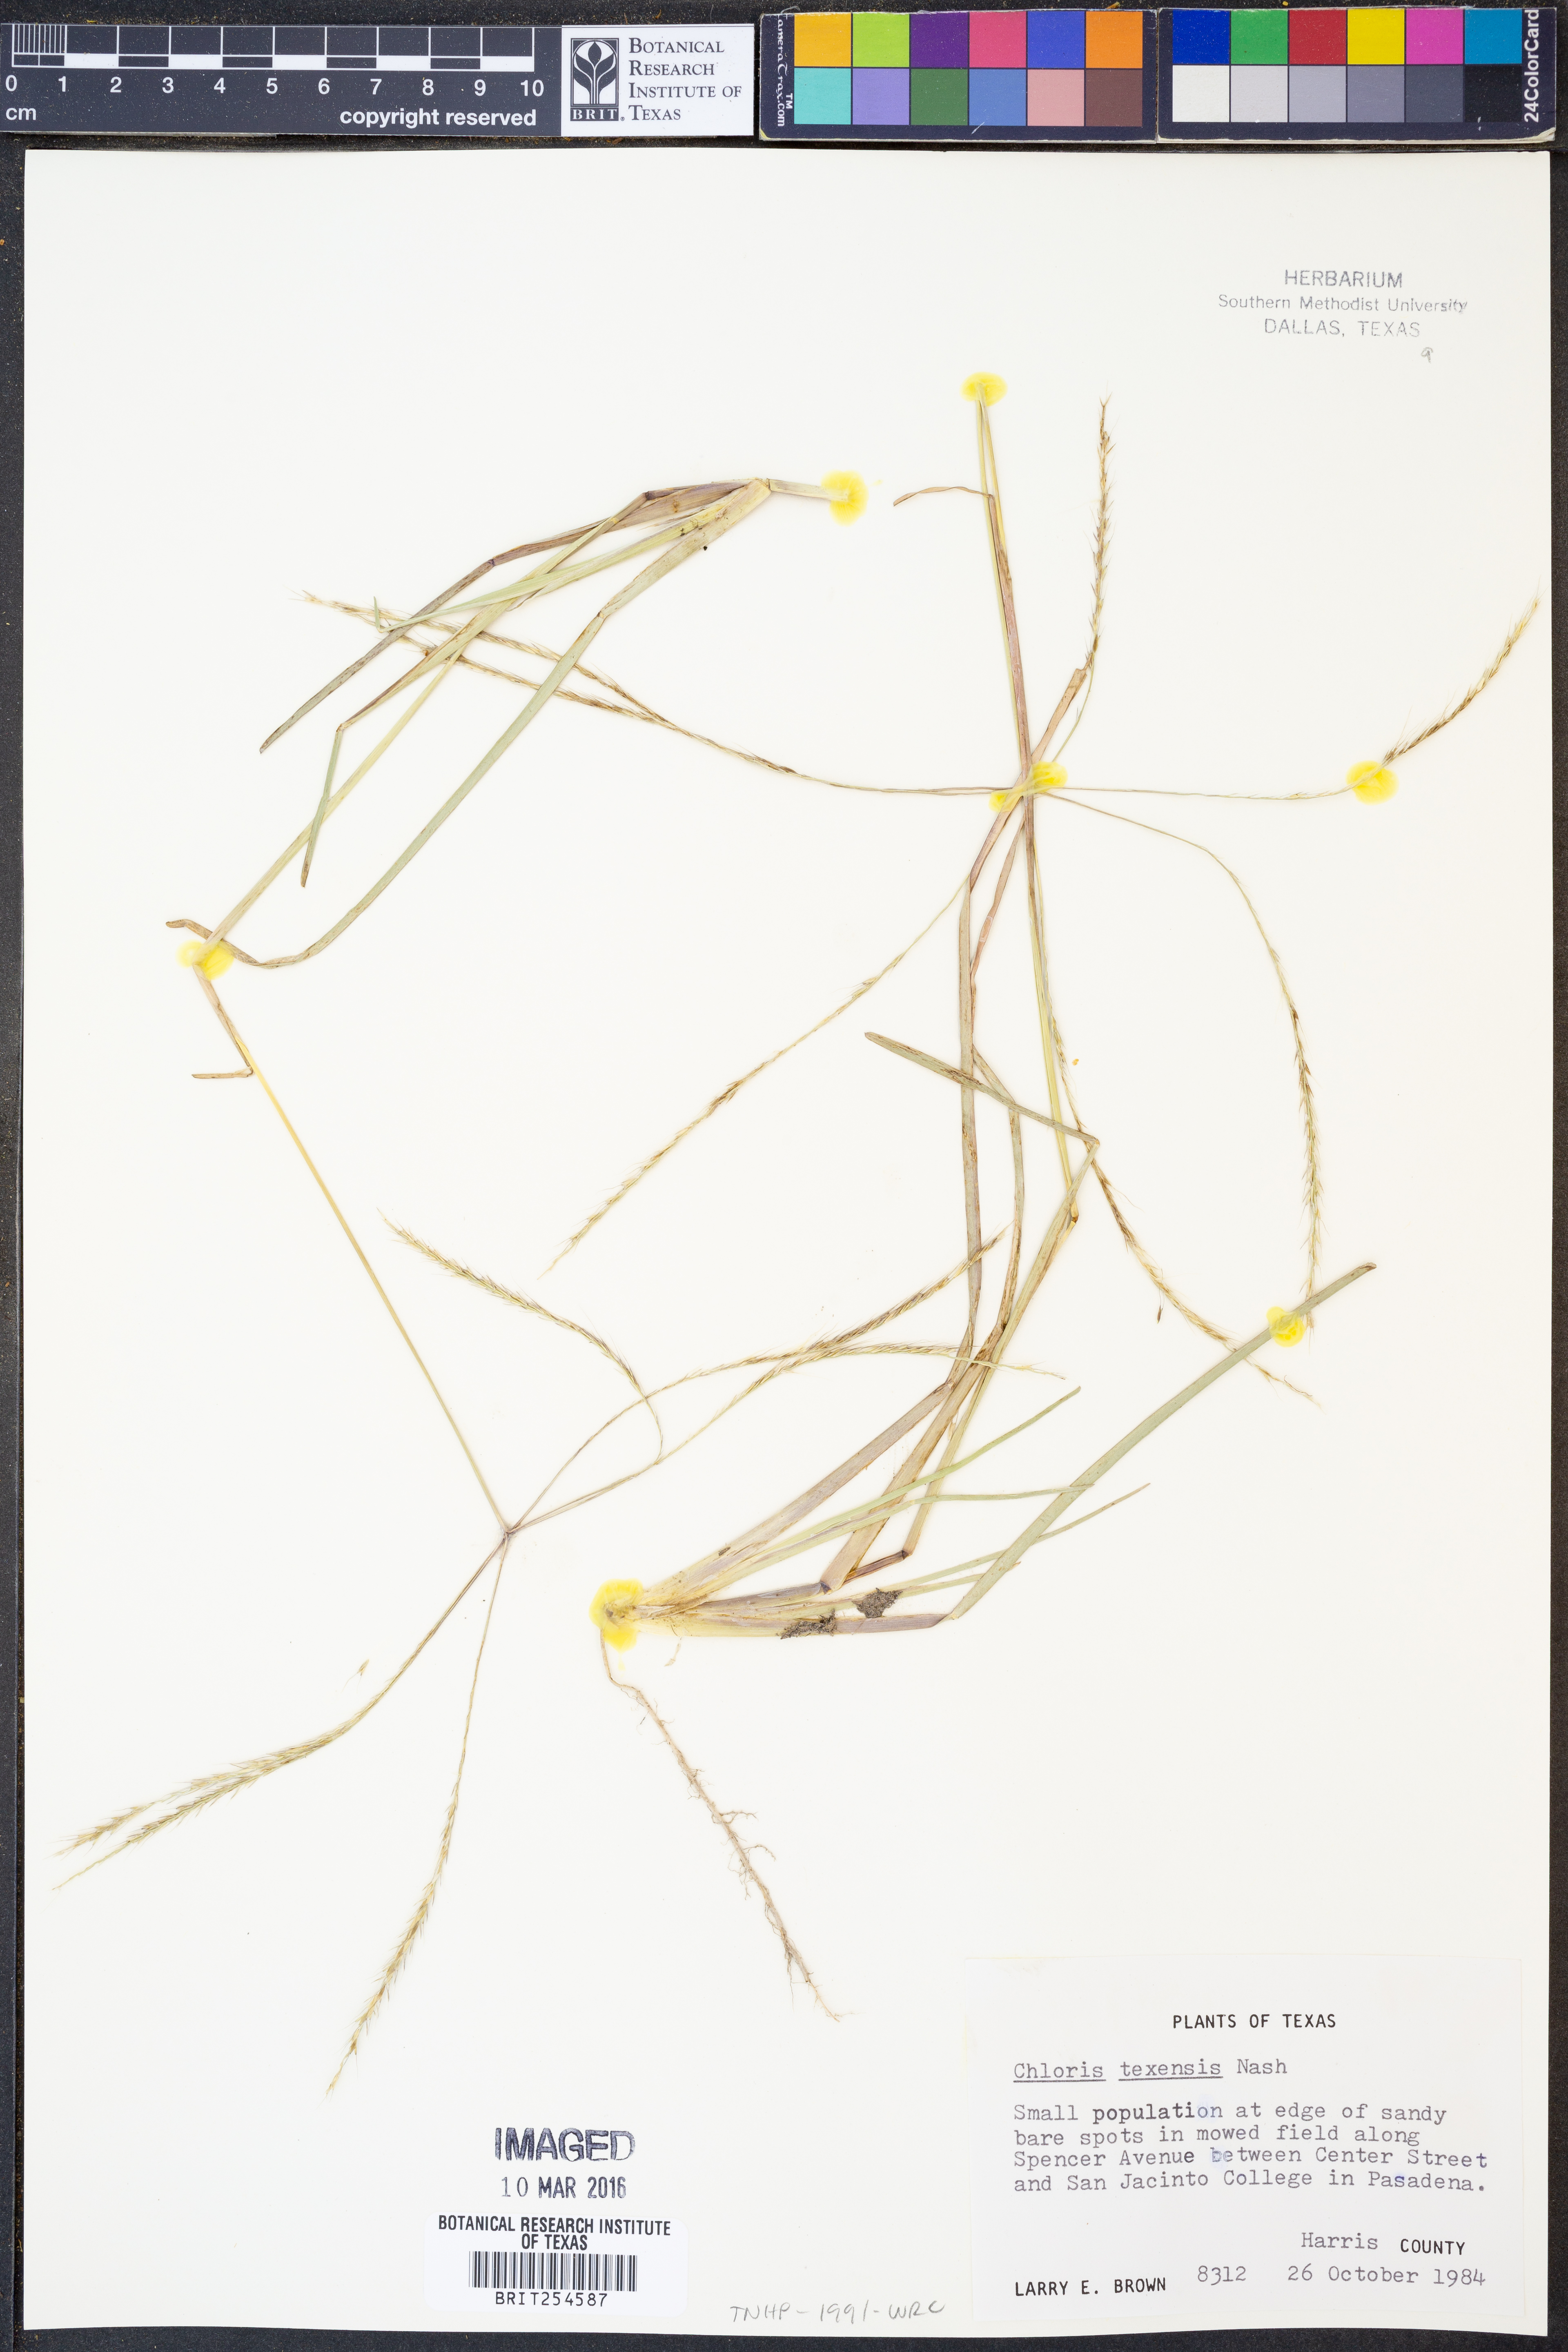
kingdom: Plantae
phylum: Tracheophyta
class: Liliopsida
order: Poales
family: Poaceae
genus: Chloris
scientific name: Chloris texensis
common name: Texas windmill grass
